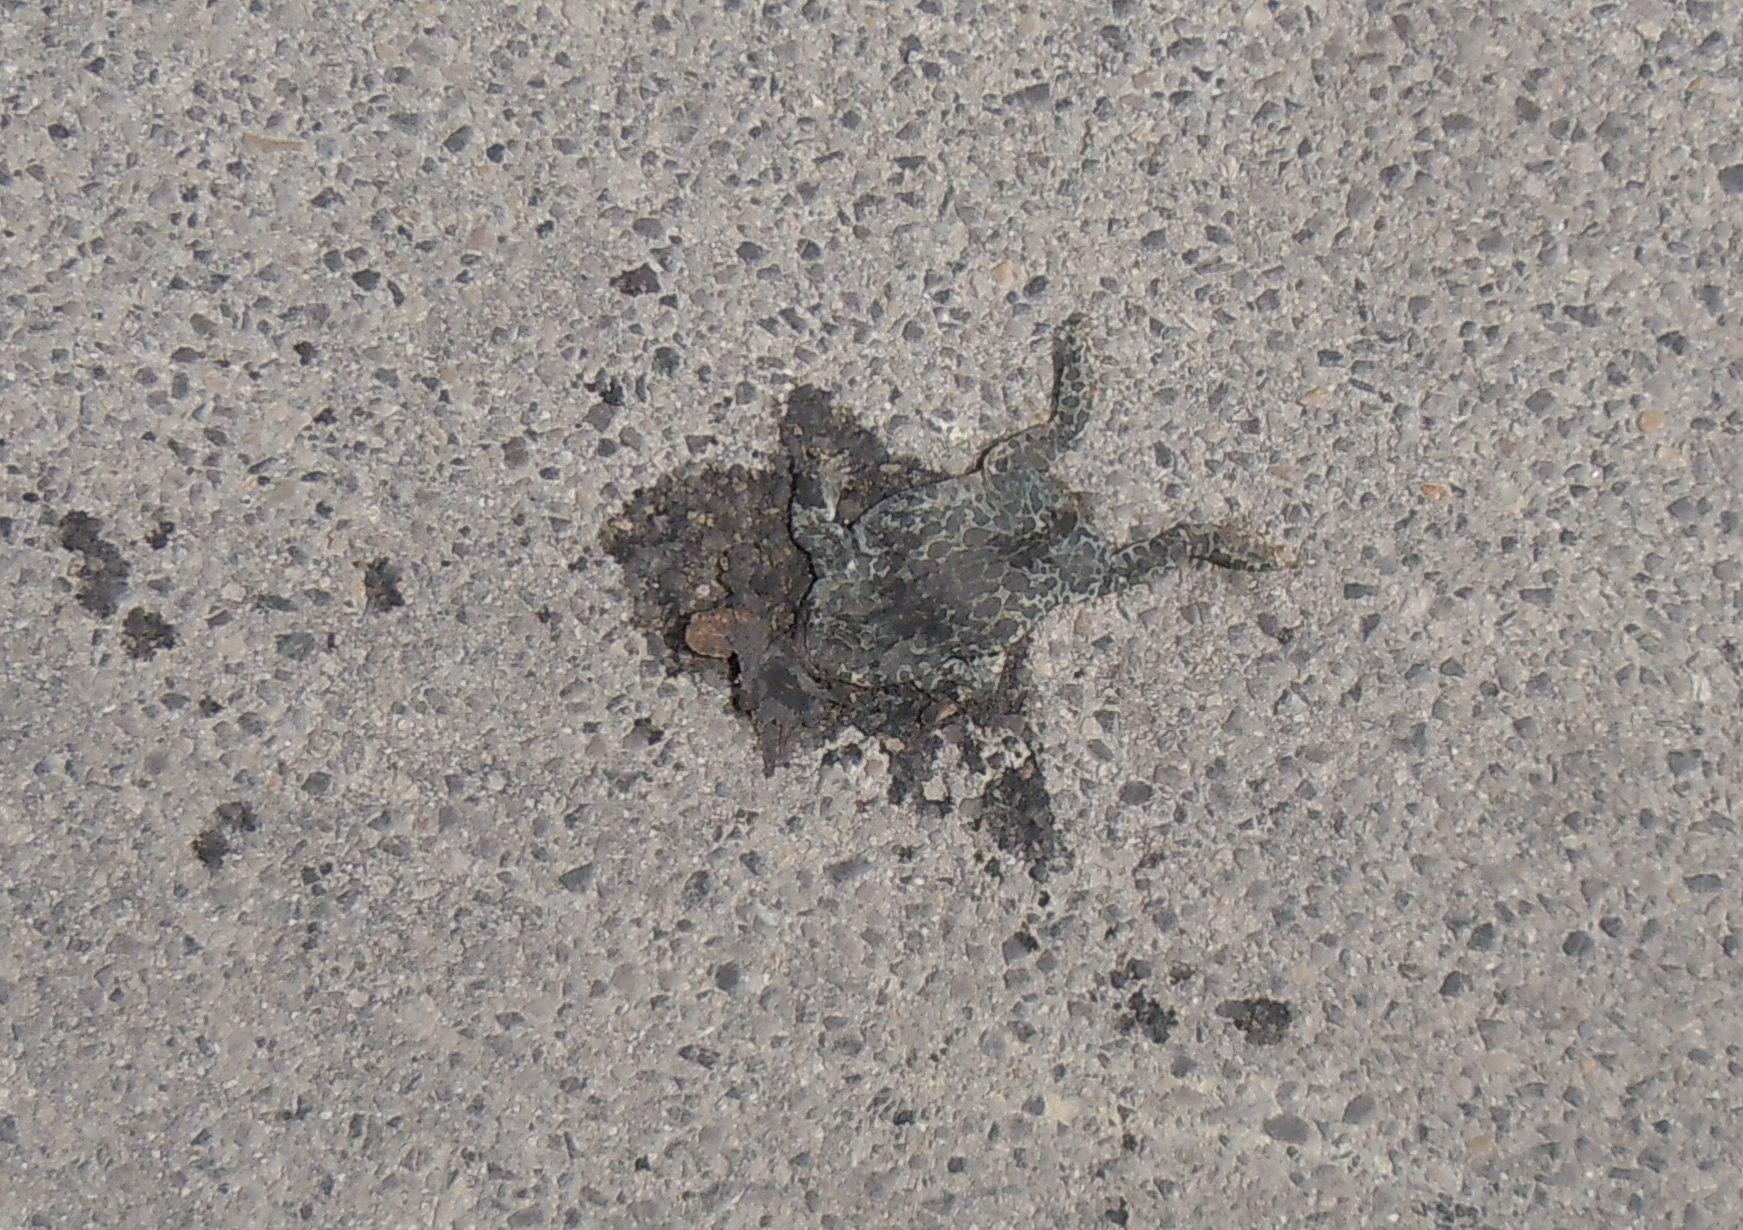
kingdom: Animalia
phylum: Chordata
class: Amphibia
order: Anura
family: Bufonidae
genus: Bufotes
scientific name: Bufotes viridis
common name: European green toad
